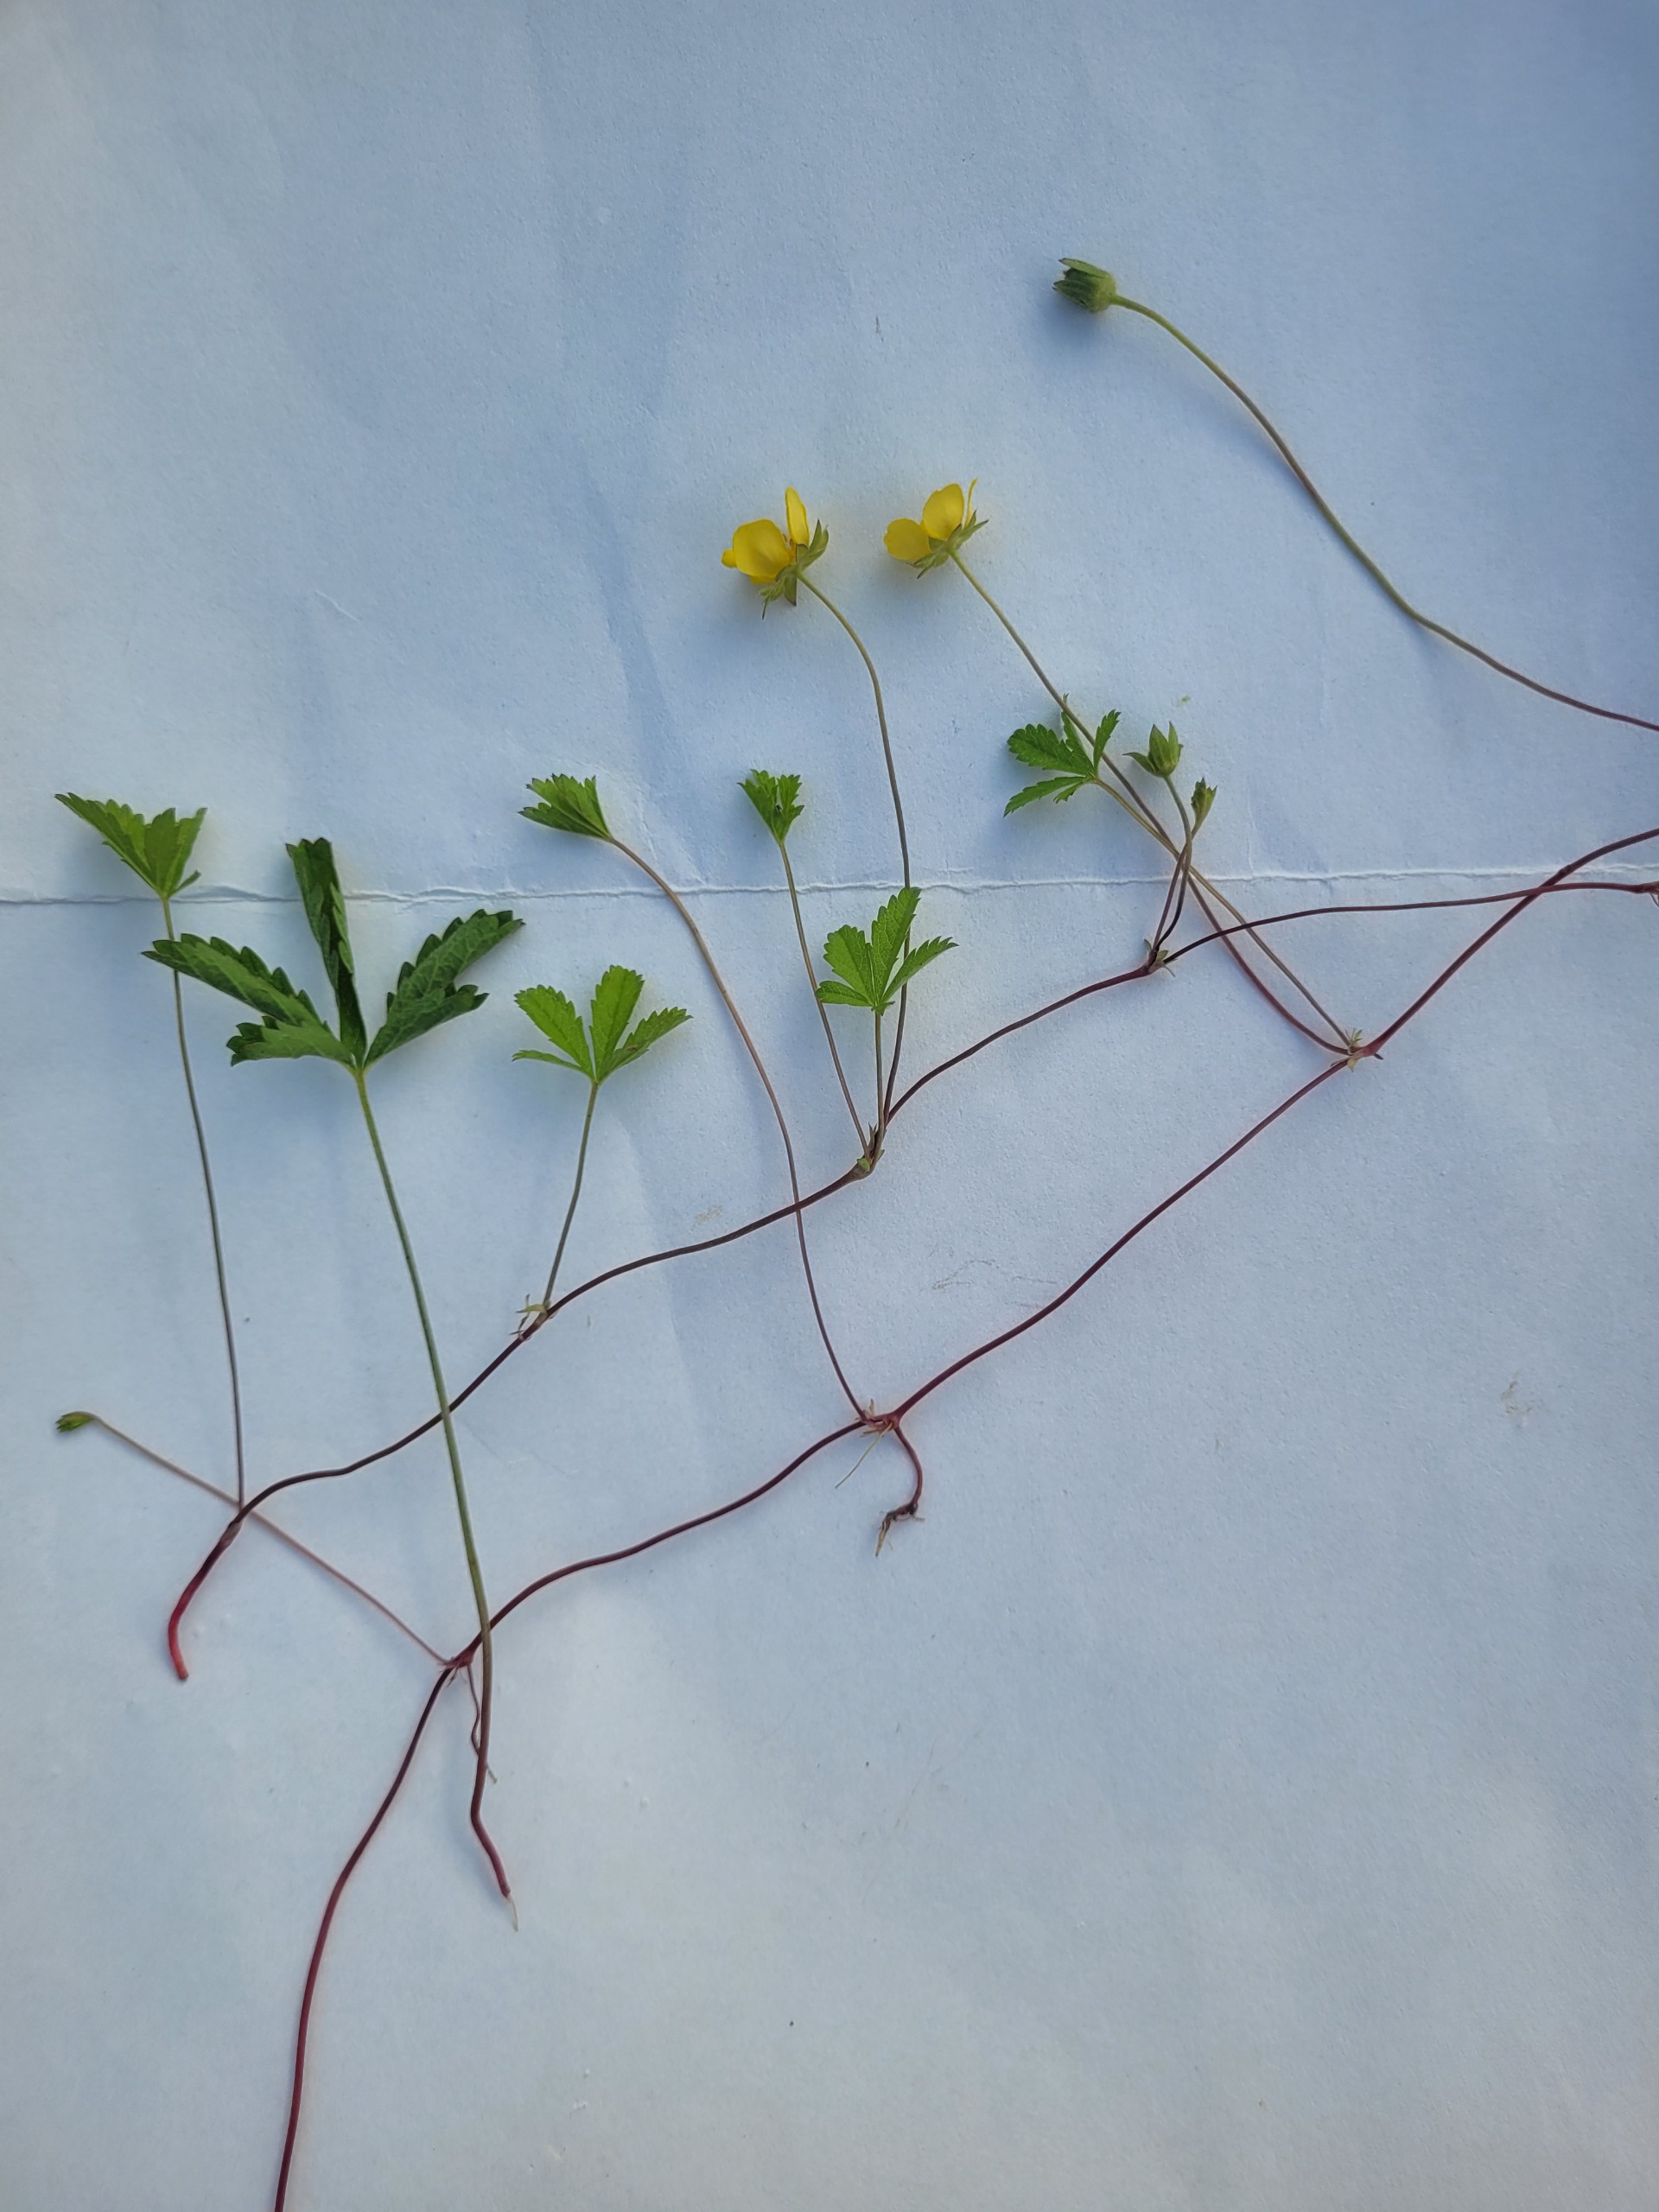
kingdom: Plantae
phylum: Tracheophyta
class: Magnoliopsida
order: Rosales
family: Rosaceae
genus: Potentilla
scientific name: Potentilla reptans
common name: Krybende potentil
